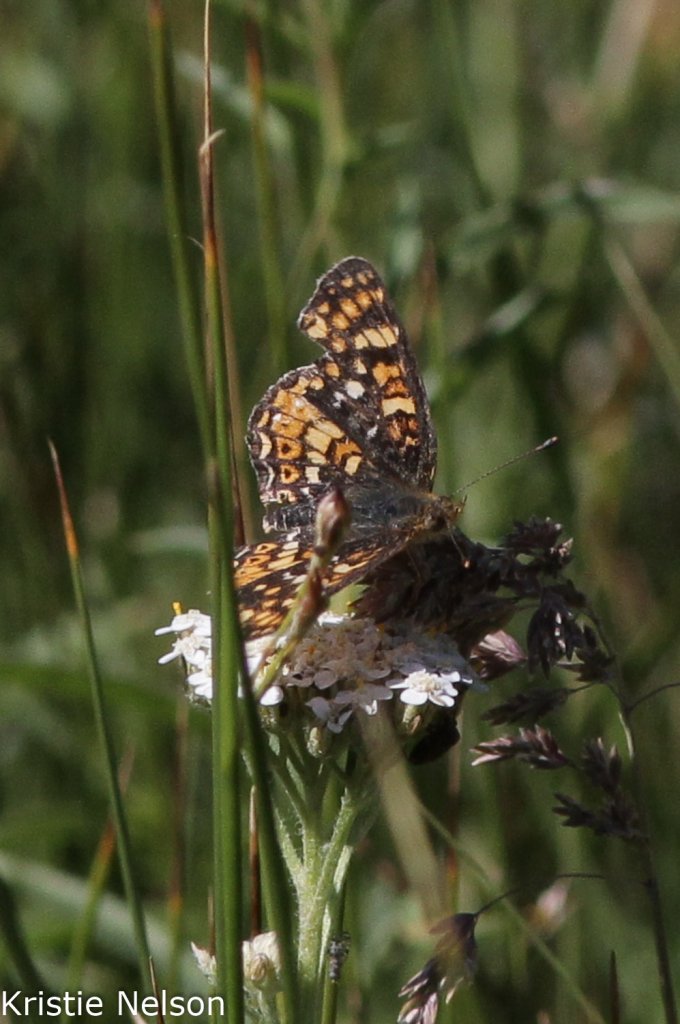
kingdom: Animalia
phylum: Arthropoda
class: Insecta
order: Lepidoptera
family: Nymphalidae
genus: Phyciodes
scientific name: Phyciodes orseis
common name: California Crescent
